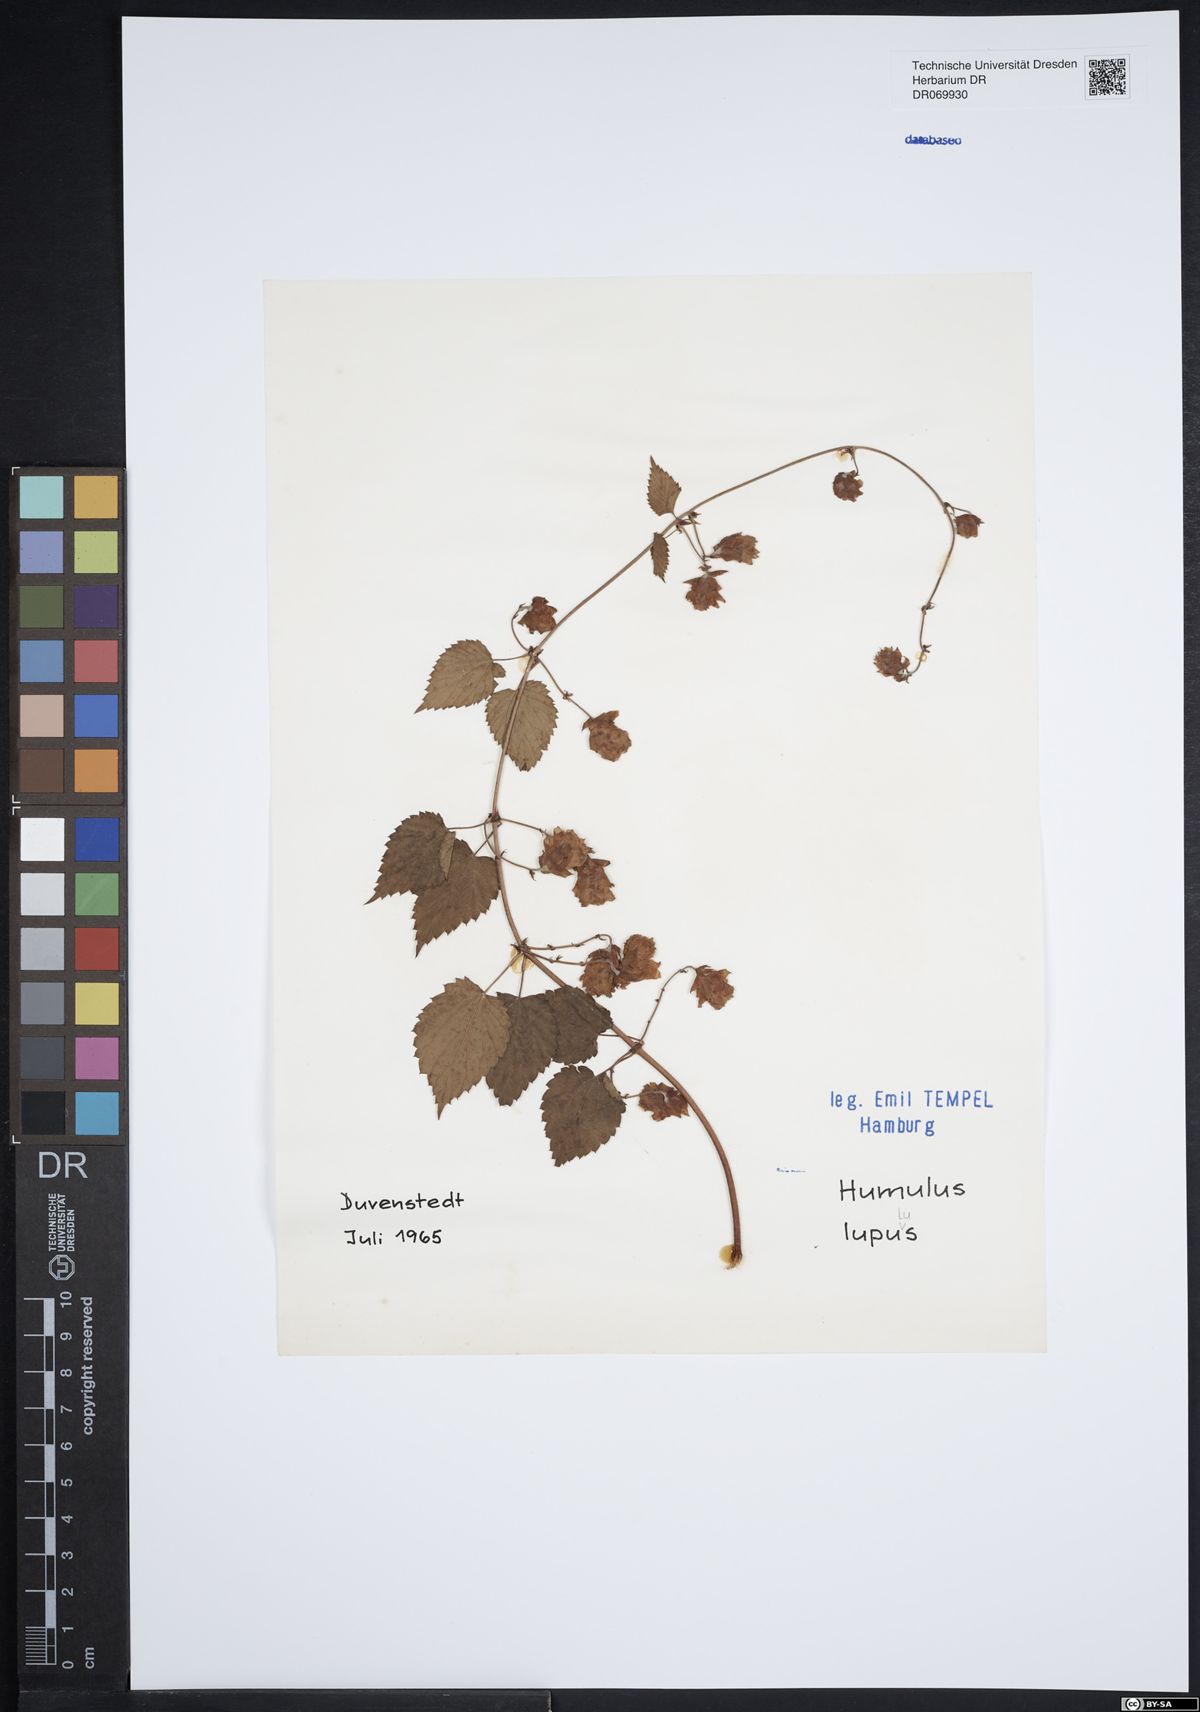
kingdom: Plantae
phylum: Tracheophyta
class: Magnoliopsida
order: Rosales
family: Cannabaceae
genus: Humulus
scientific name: Humulus lupulus
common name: Hop
